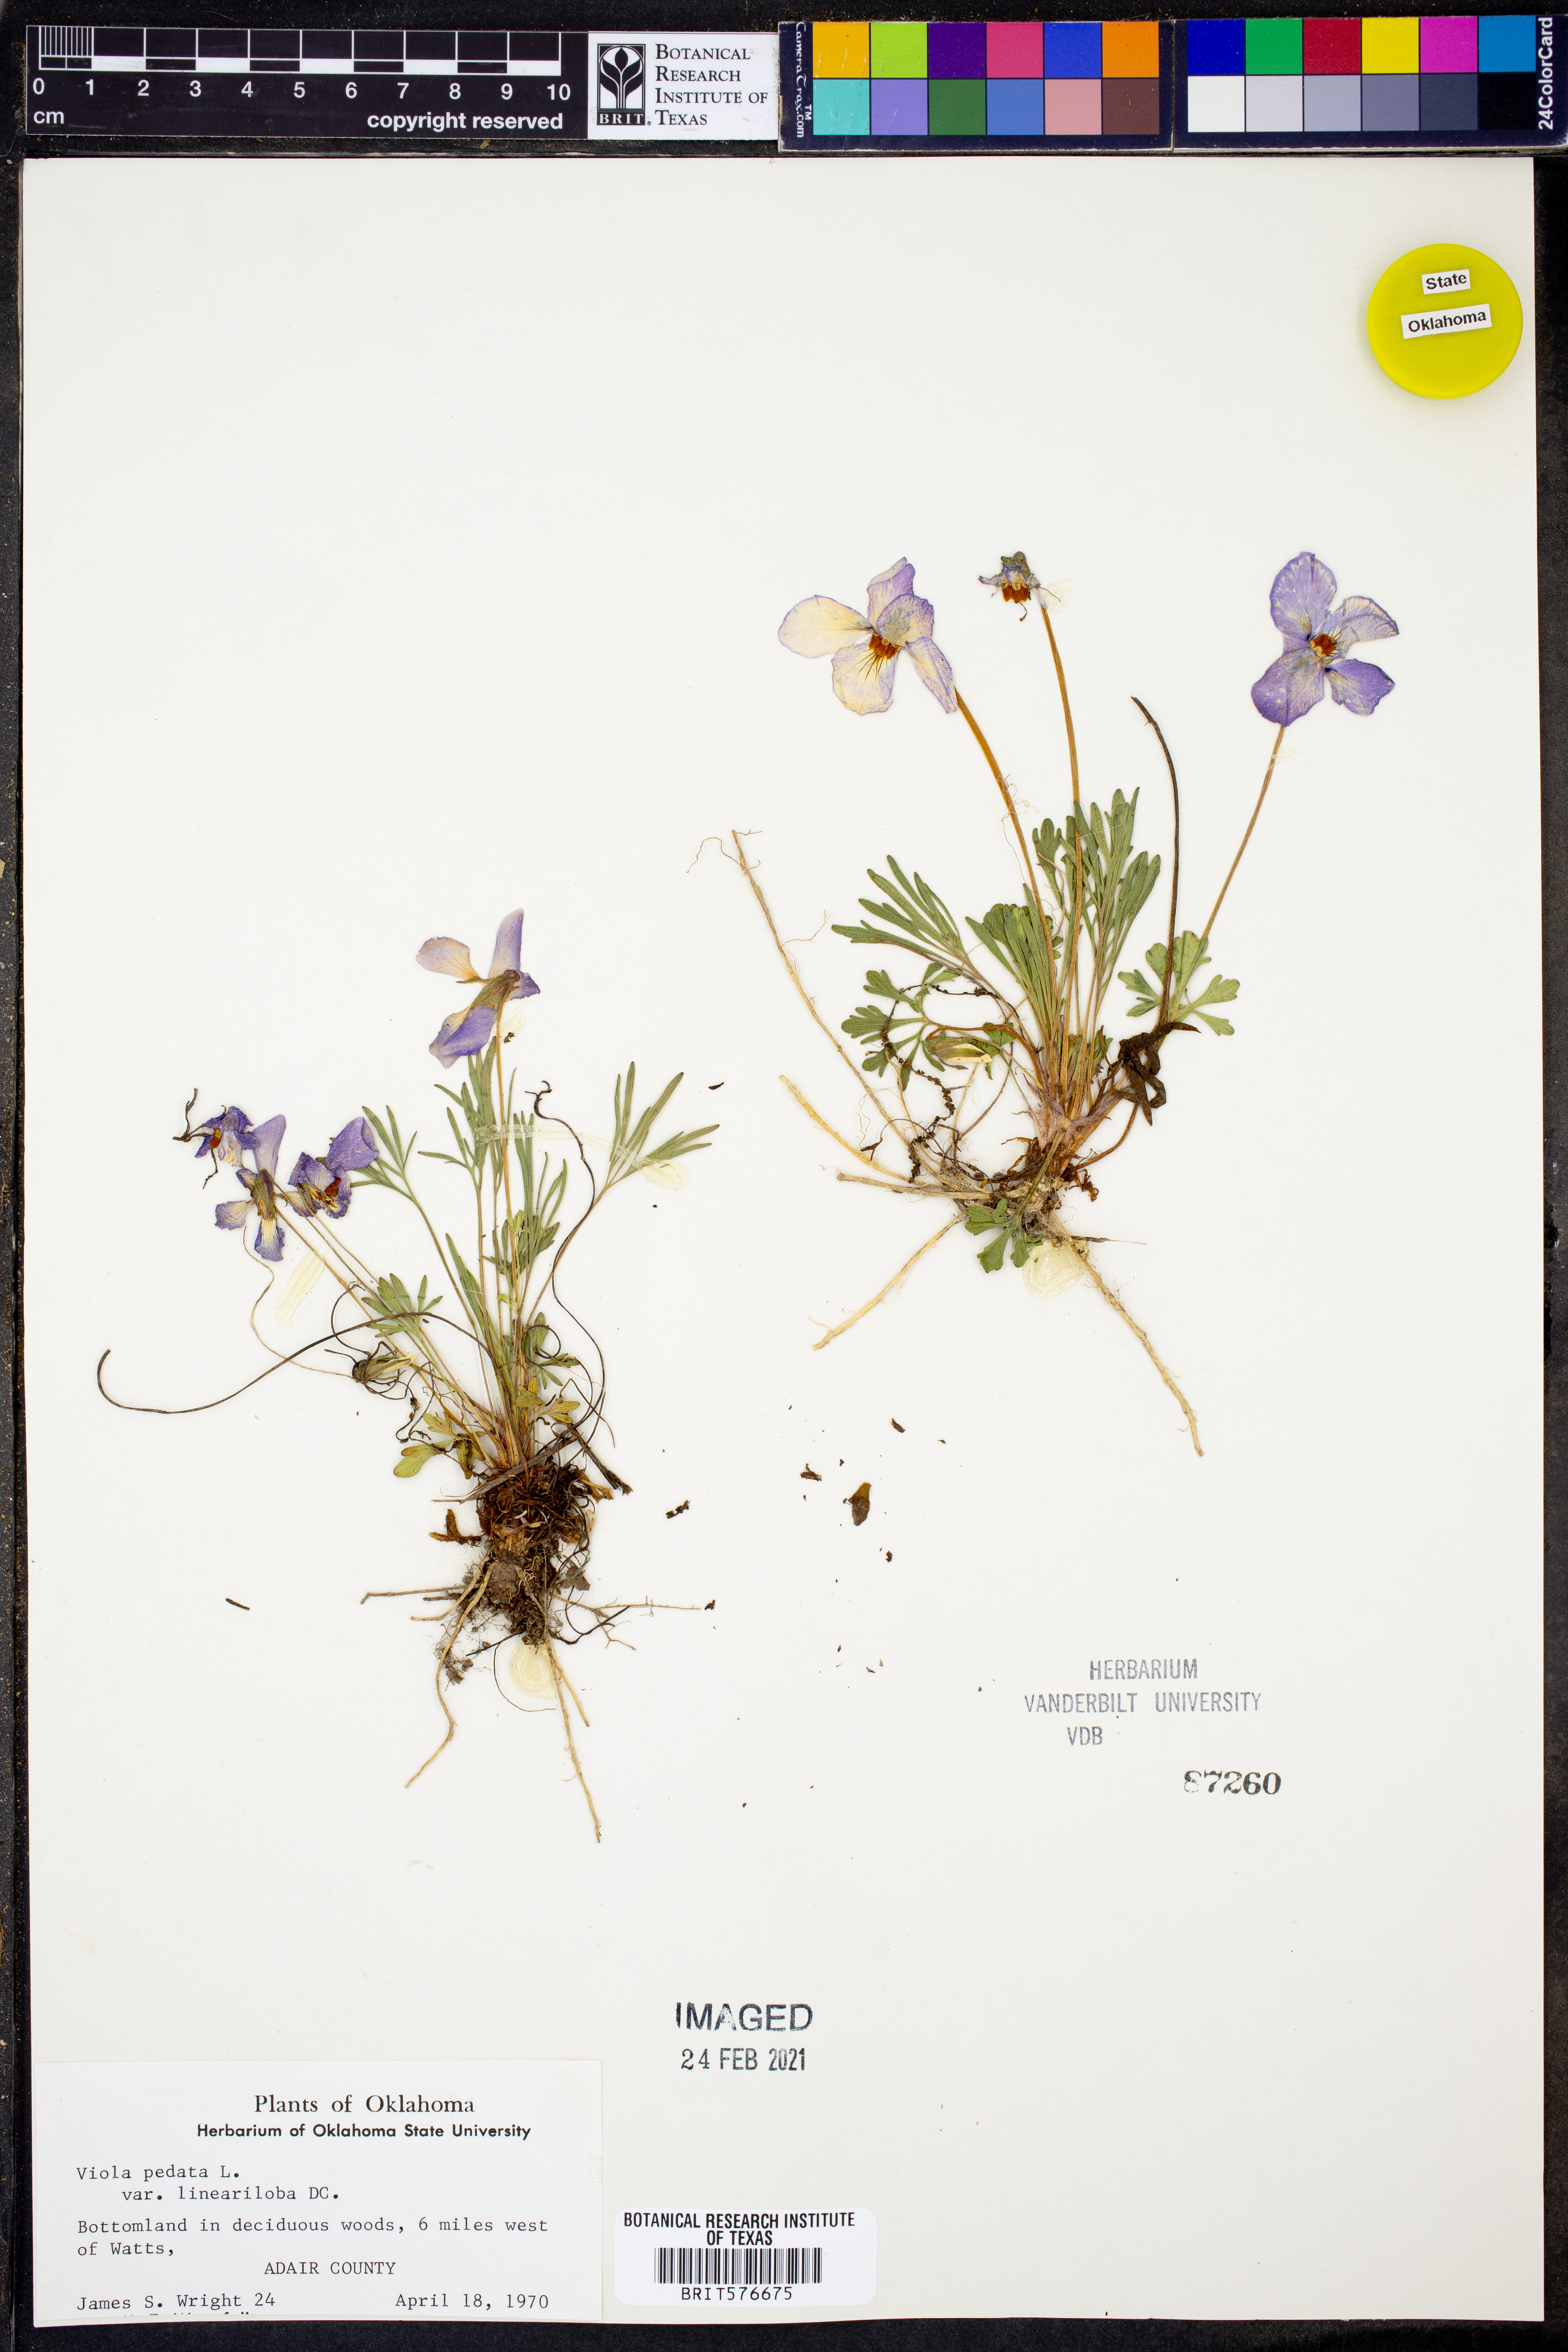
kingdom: Plantae
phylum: Tracheophyta
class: Magnoliopsida
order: Malpighiales
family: Violaceae
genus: Viola
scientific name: Viola pedata
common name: Pansy violet
